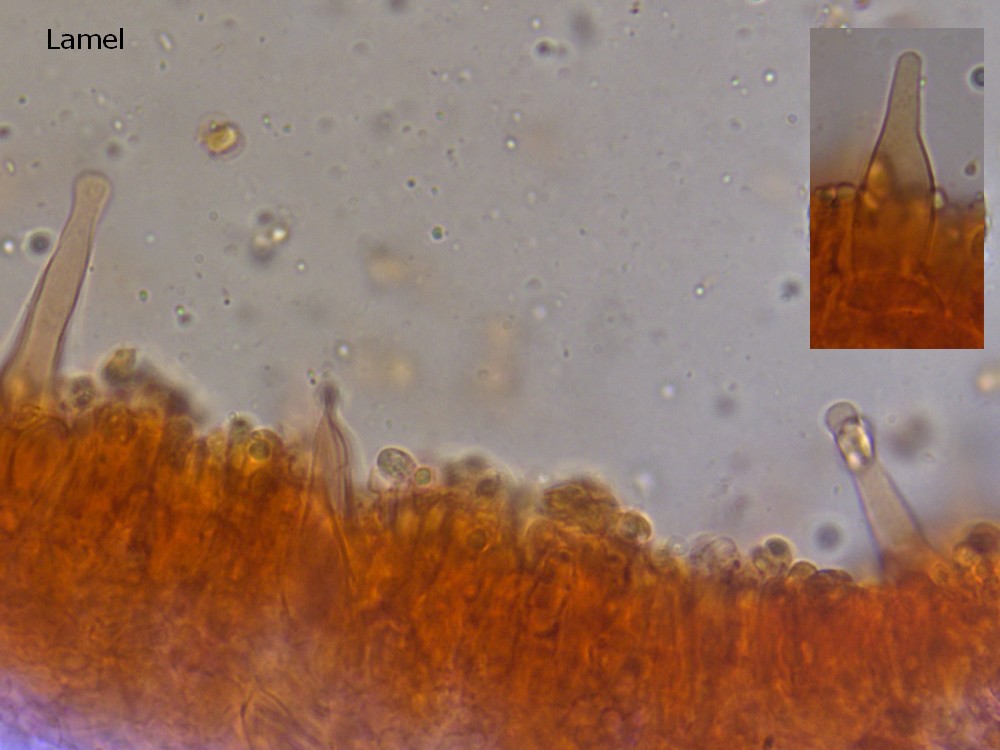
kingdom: Fungi
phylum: Basidiomycota
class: Agaricomycetes
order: Hymenochaetales
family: Rickenellaceae
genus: Rickenella
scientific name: Rickenella
